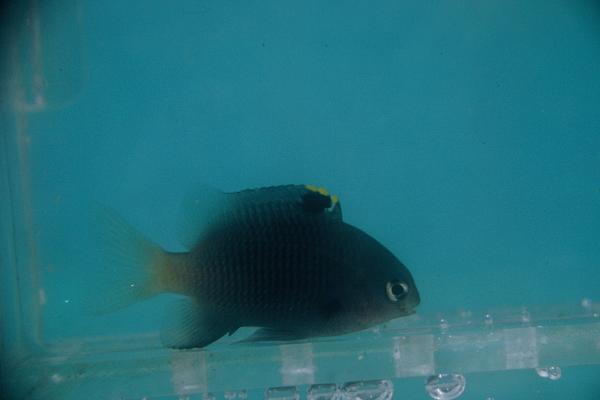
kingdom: Animalia
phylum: Chordata
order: Perciformes
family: Pomacentridae
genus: Stegastes
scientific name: Stegastes fasciolatus
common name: Pacific gregory
